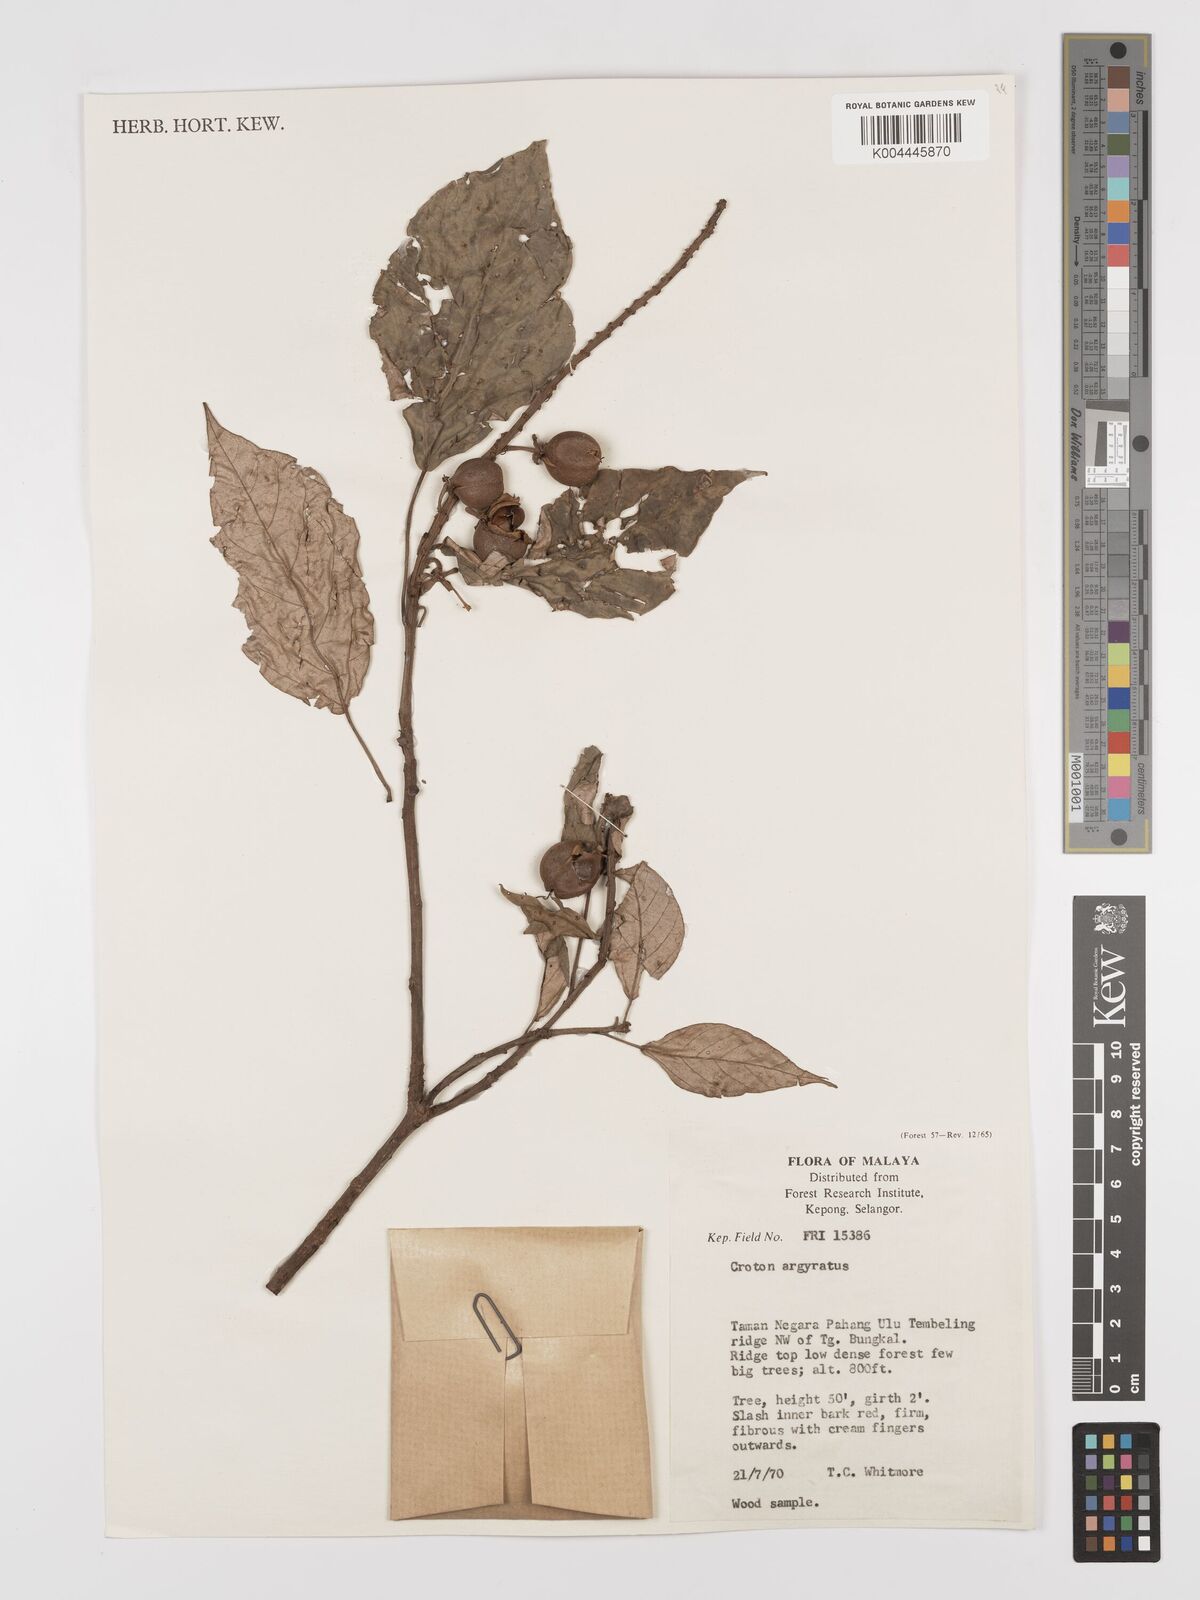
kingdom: Plantae
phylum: Tracheophyta
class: Magnoliopsida
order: Malpighiales
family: Euphorbiaceae
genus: Croton
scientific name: Croton argyratus
